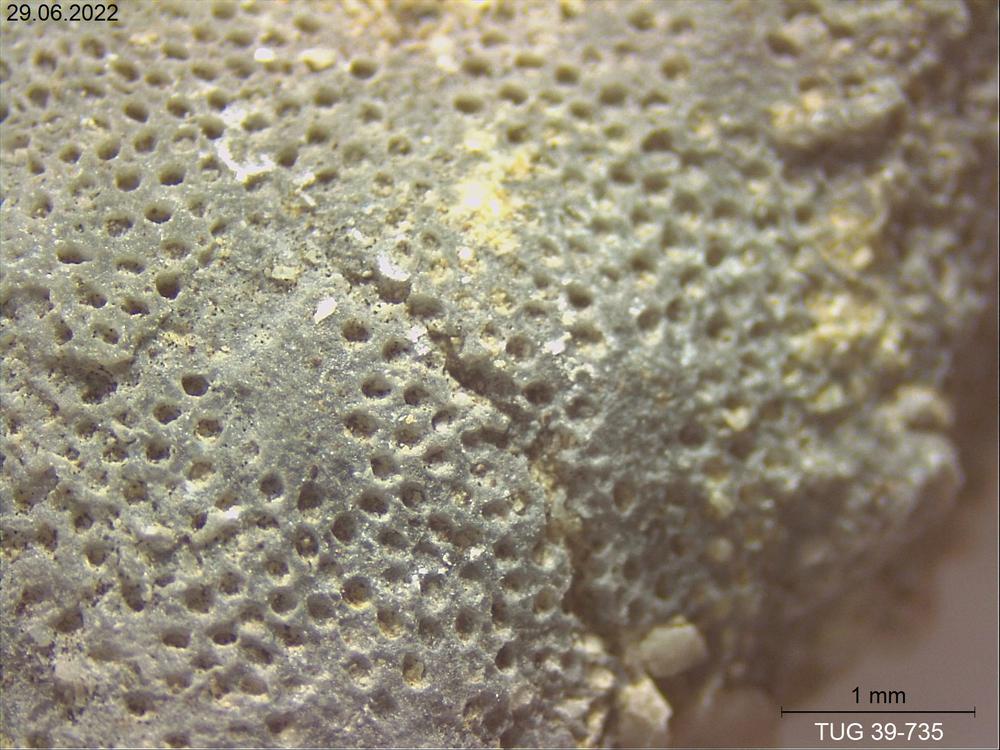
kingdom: Animalia
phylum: Bryozoa
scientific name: Bryozoa
